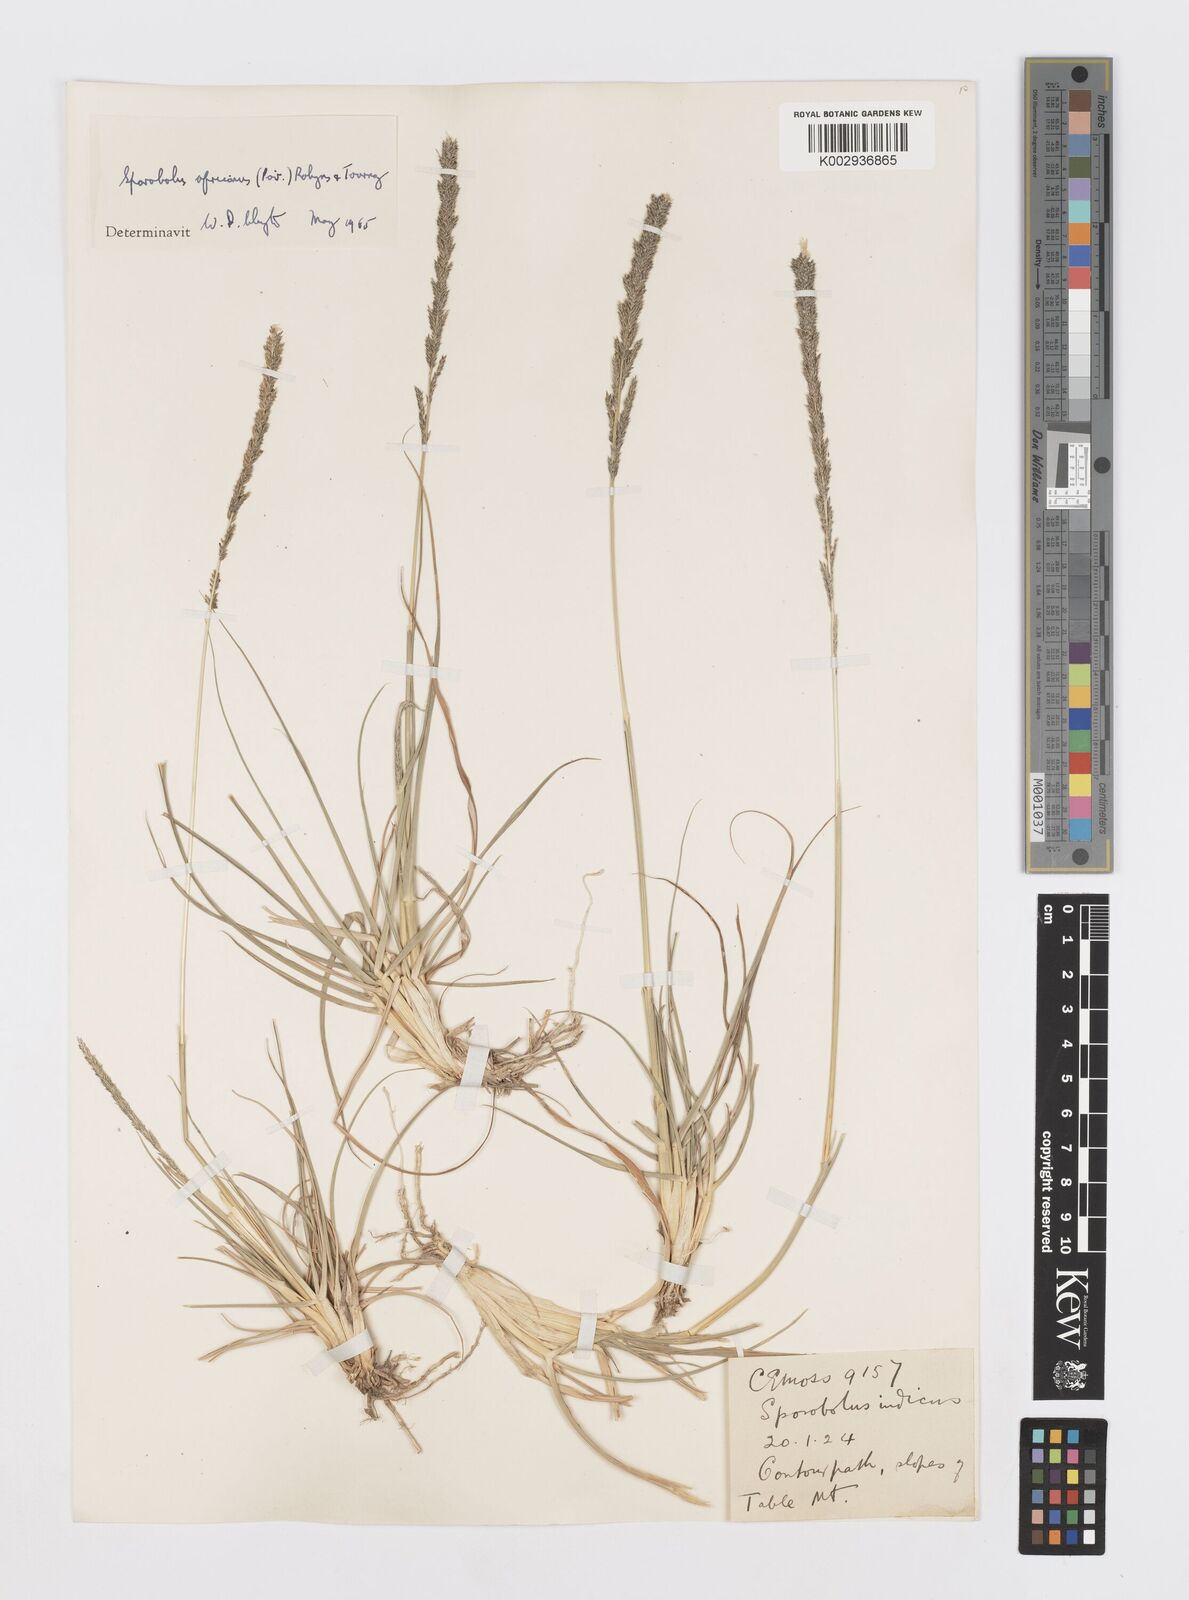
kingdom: Plantae
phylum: Tracheophyta
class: Liliopsida
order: Poales
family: Poaceae
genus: Sporobolus
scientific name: Sporobolus africanus
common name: African dropseed
